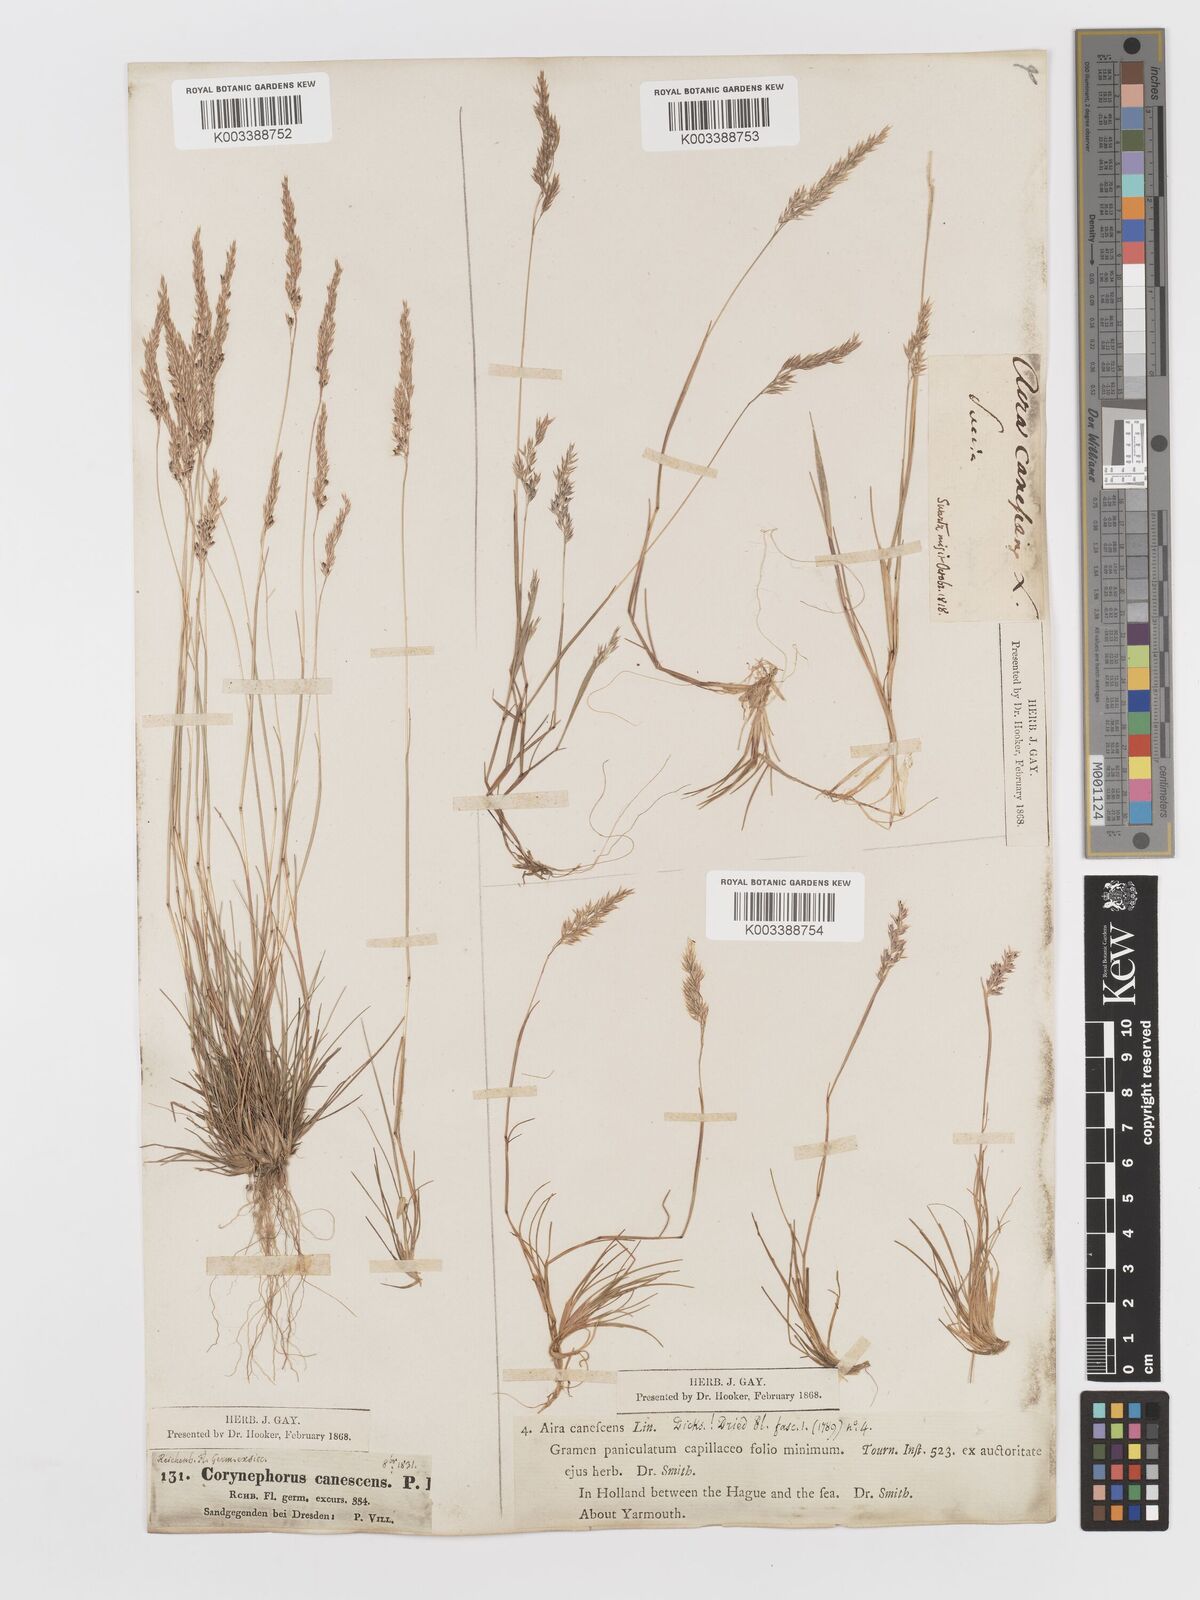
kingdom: Plantae
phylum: Tracheophyta
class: Liliopsida
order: Poales
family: Poaceae
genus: Corynephorus
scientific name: Corynephorus canescens
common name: Grey hair-grass
